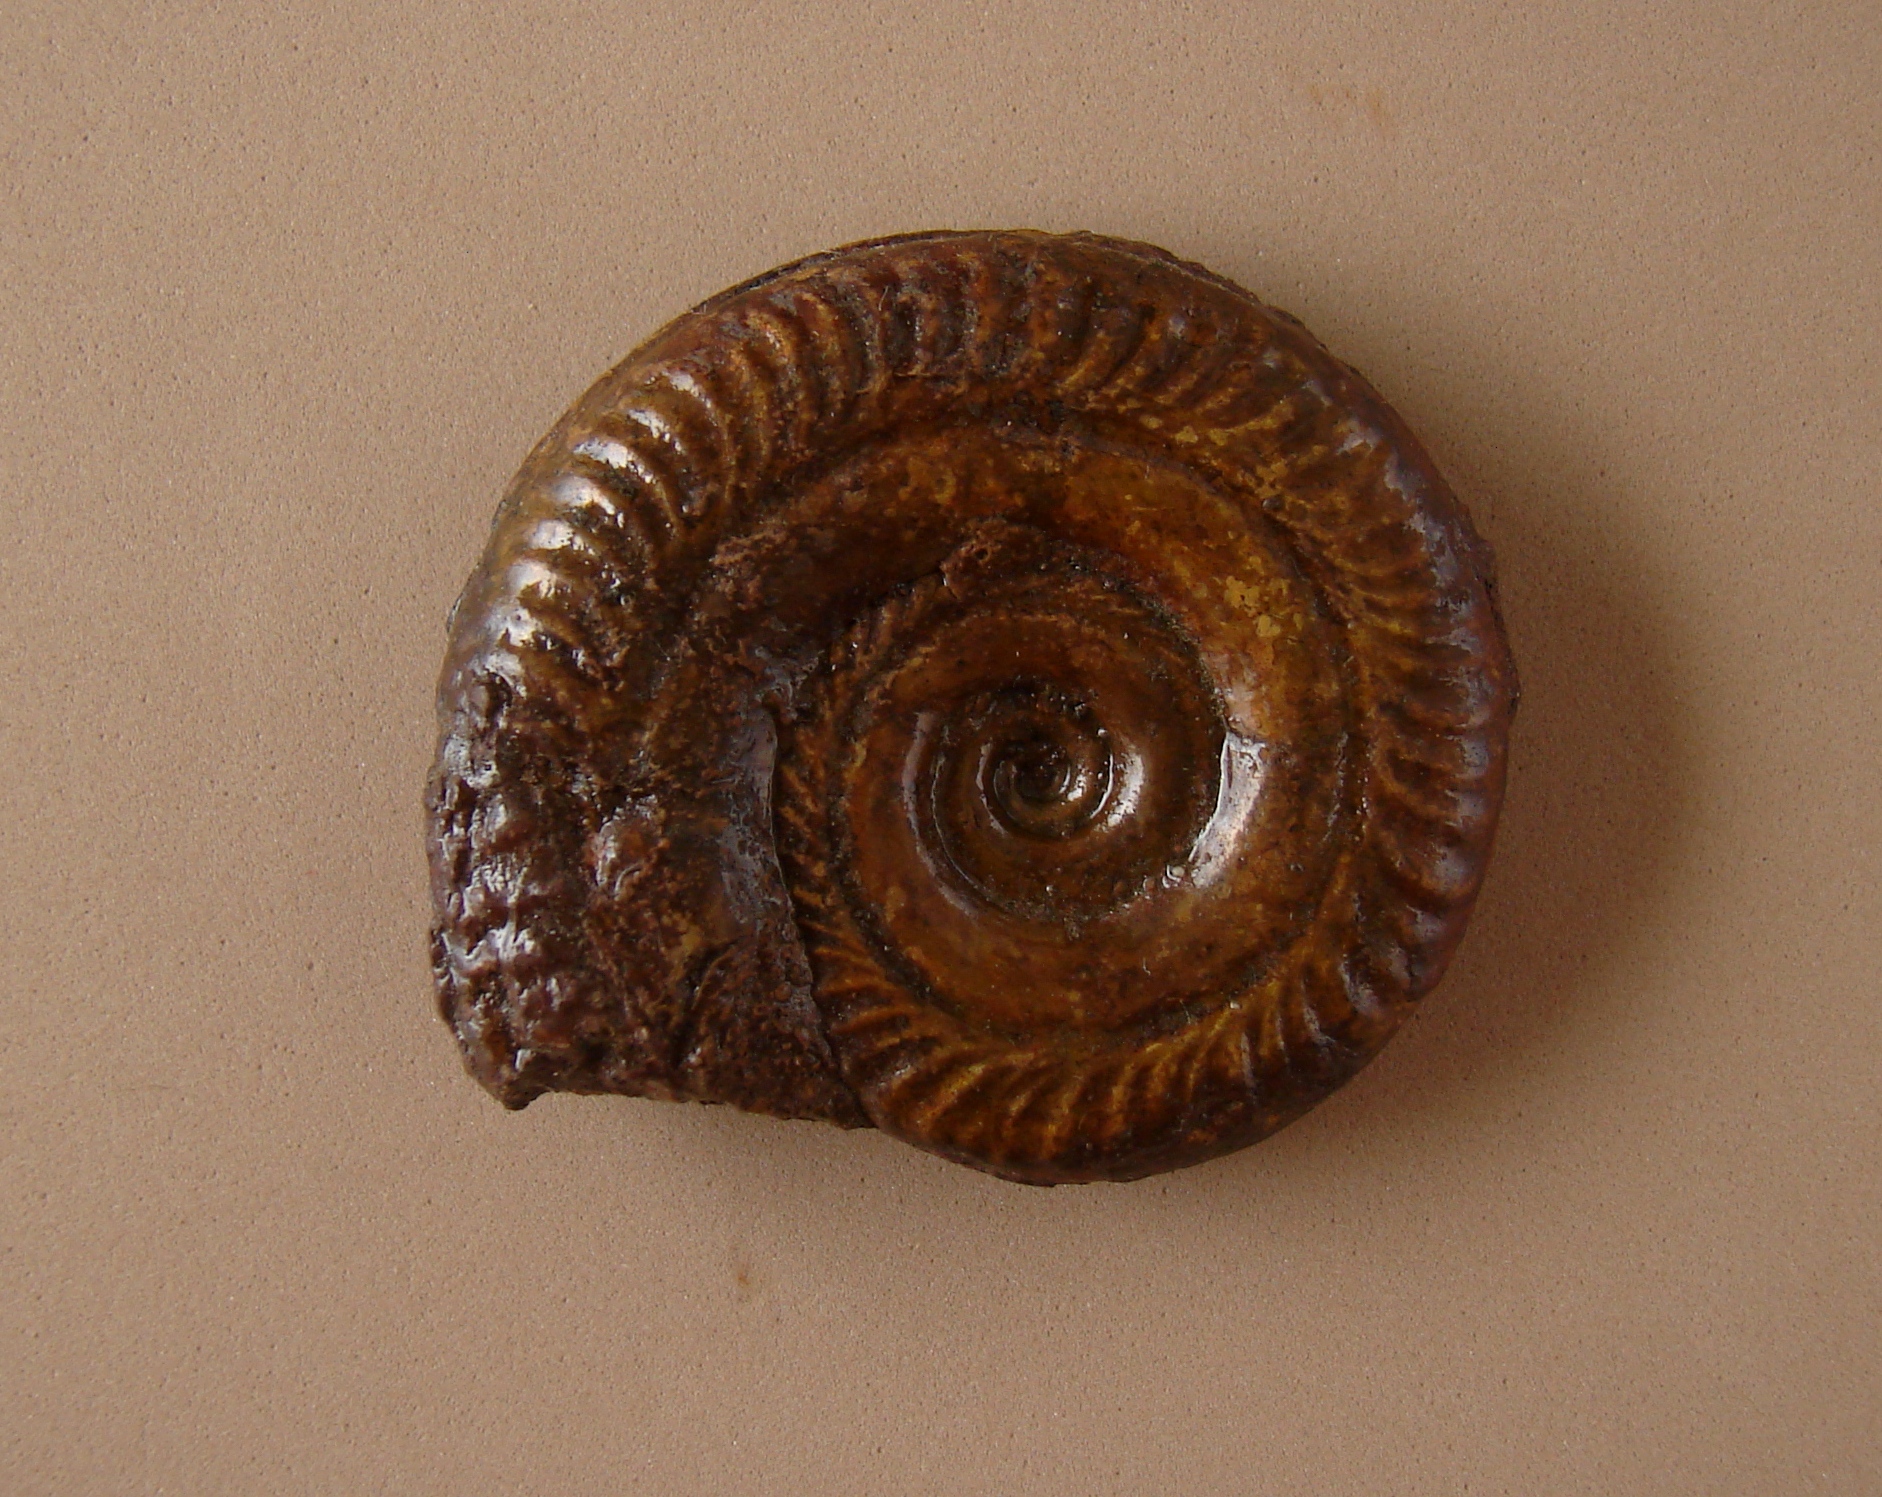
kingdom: Animalia
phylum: Mollusca
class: Cephalopoda
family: Hildoceratidae
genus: Hildoceras
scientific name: Hildoceras bifrons
